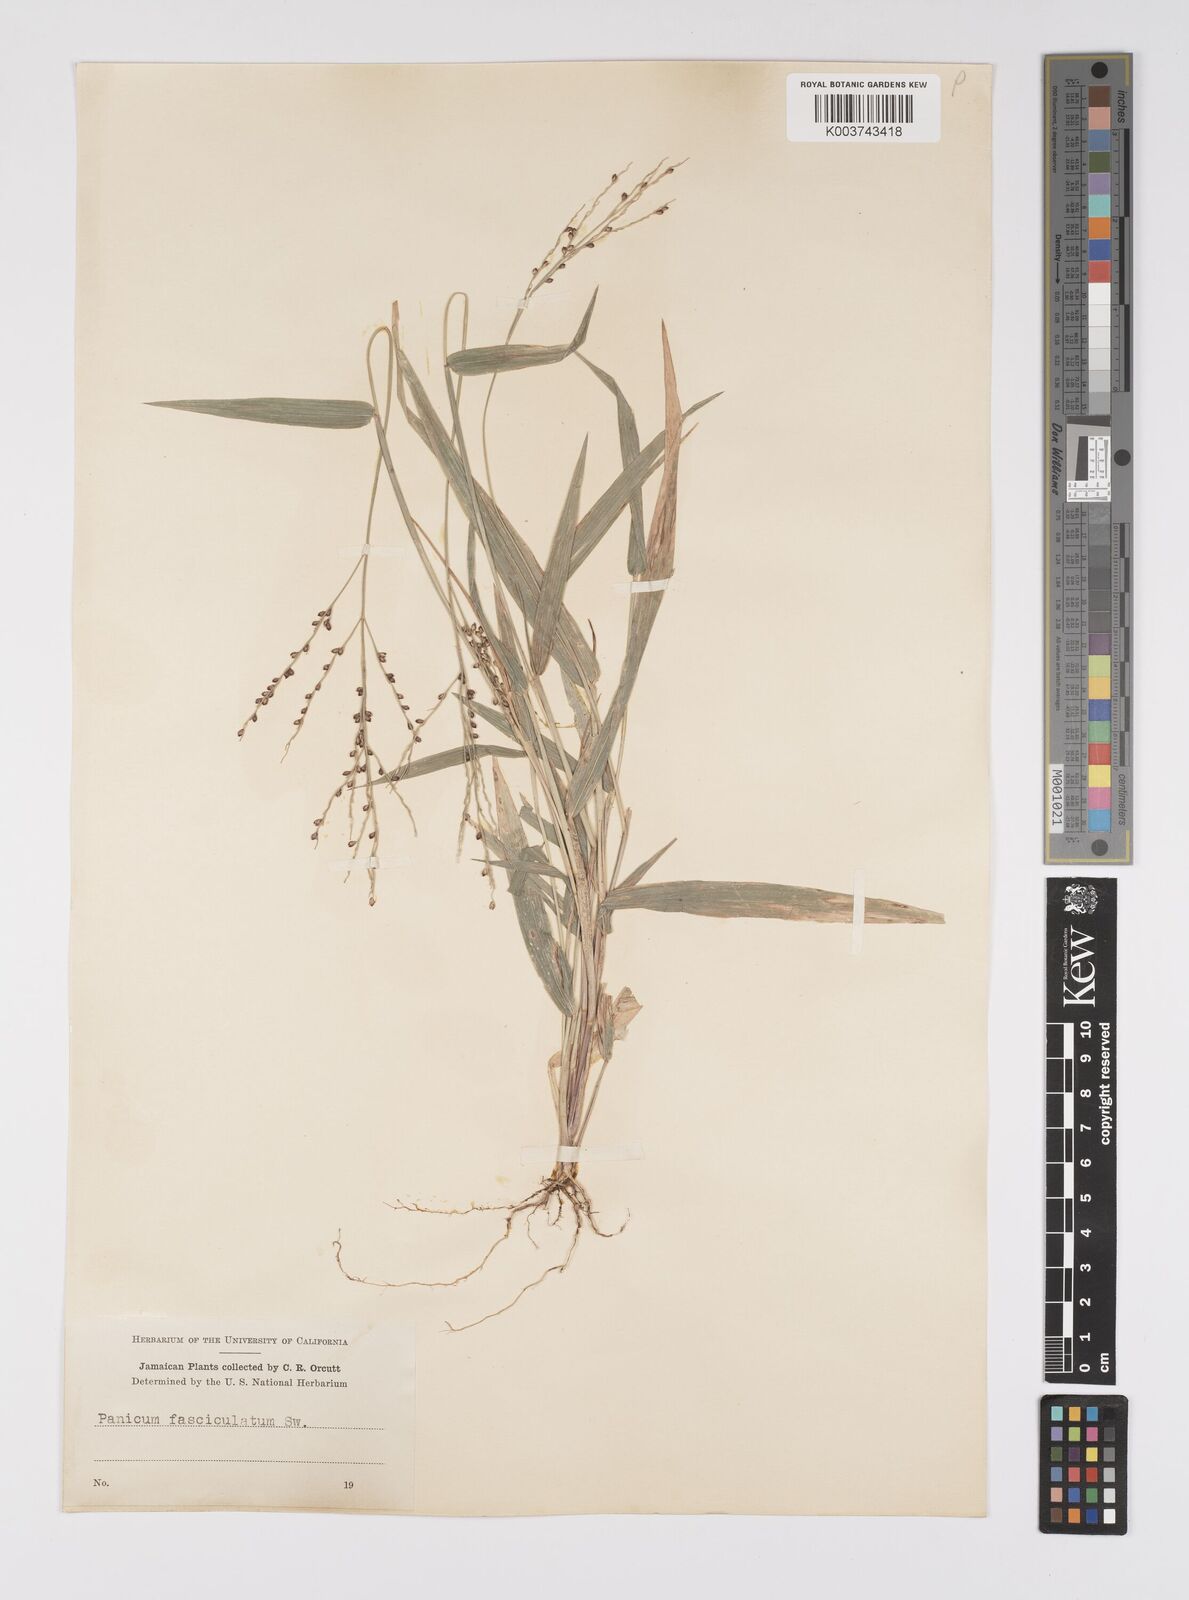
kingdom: Plantae
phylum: Tracheophyta
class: Liliopsida
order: Poales
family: Poaceae
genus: Urochloa
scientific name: Urochloa fusca
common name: Browntop signal grass
